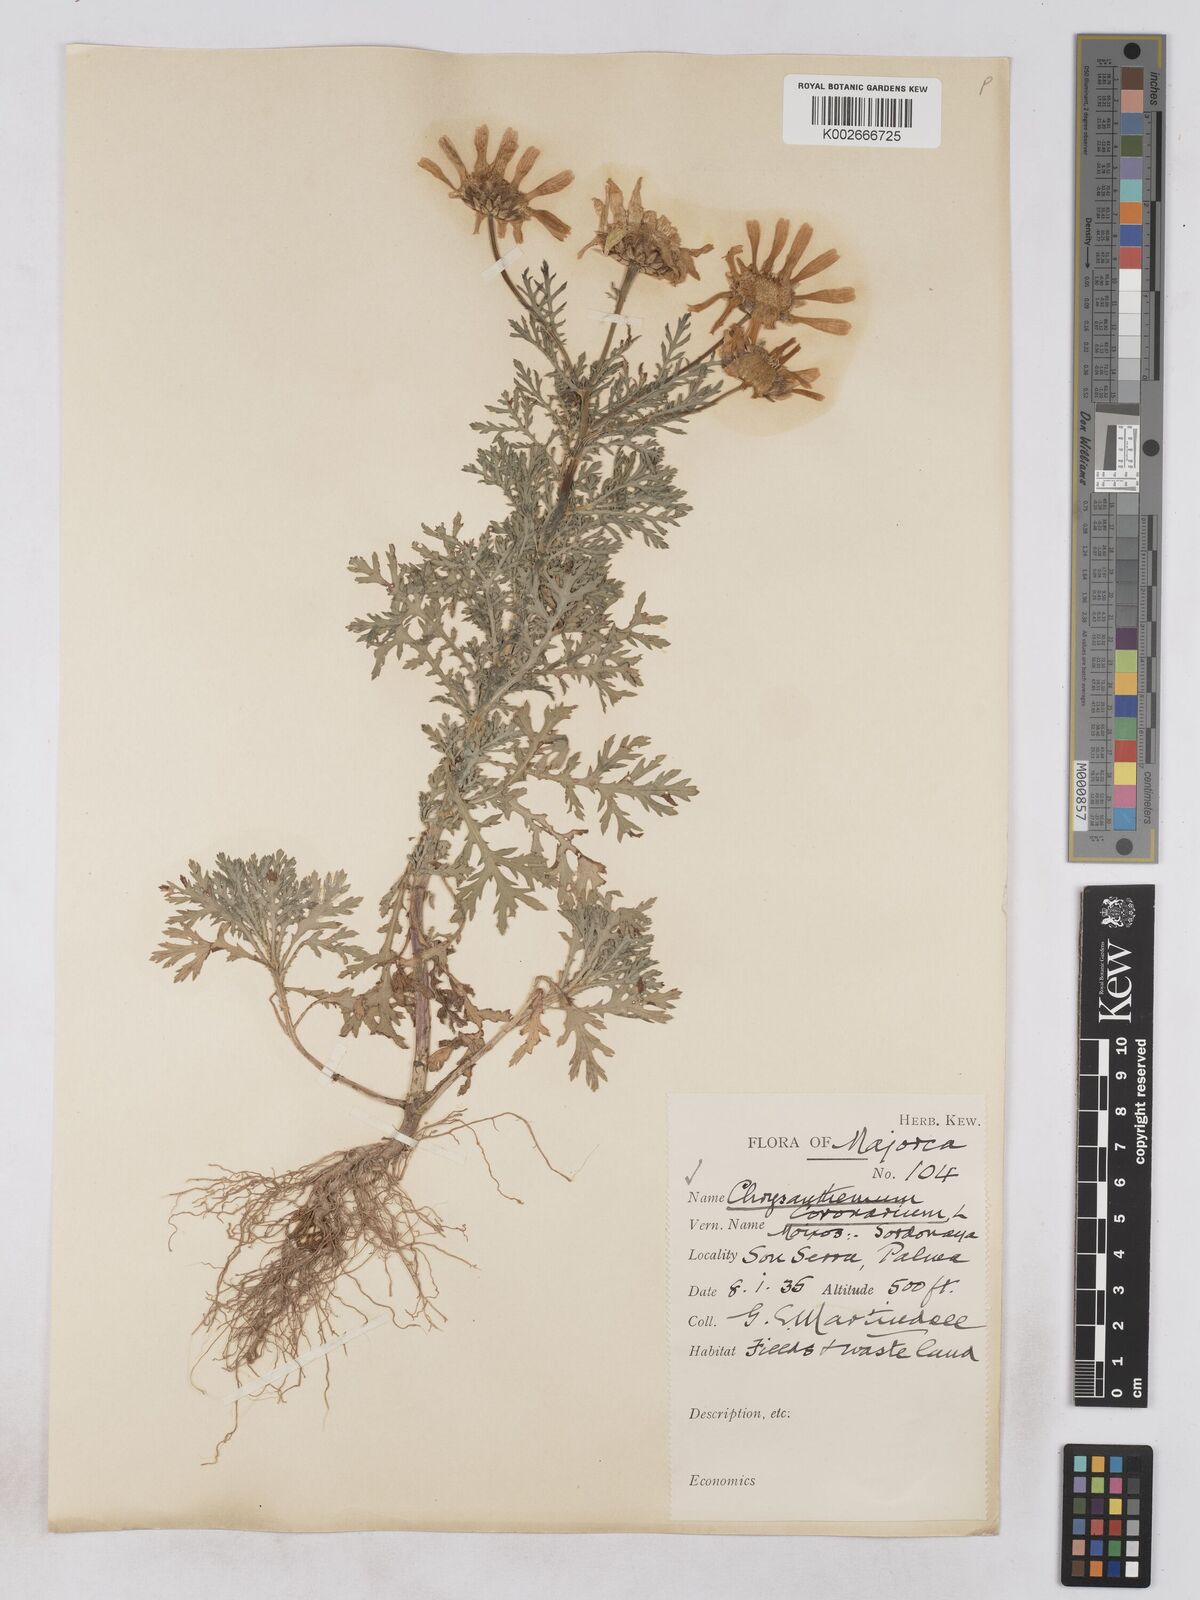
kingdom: Plantae
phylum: Tracheophyta
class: Magnoliopsida
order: Asterales
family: Asteraceae
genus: Glebionis
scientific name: Glebionis
